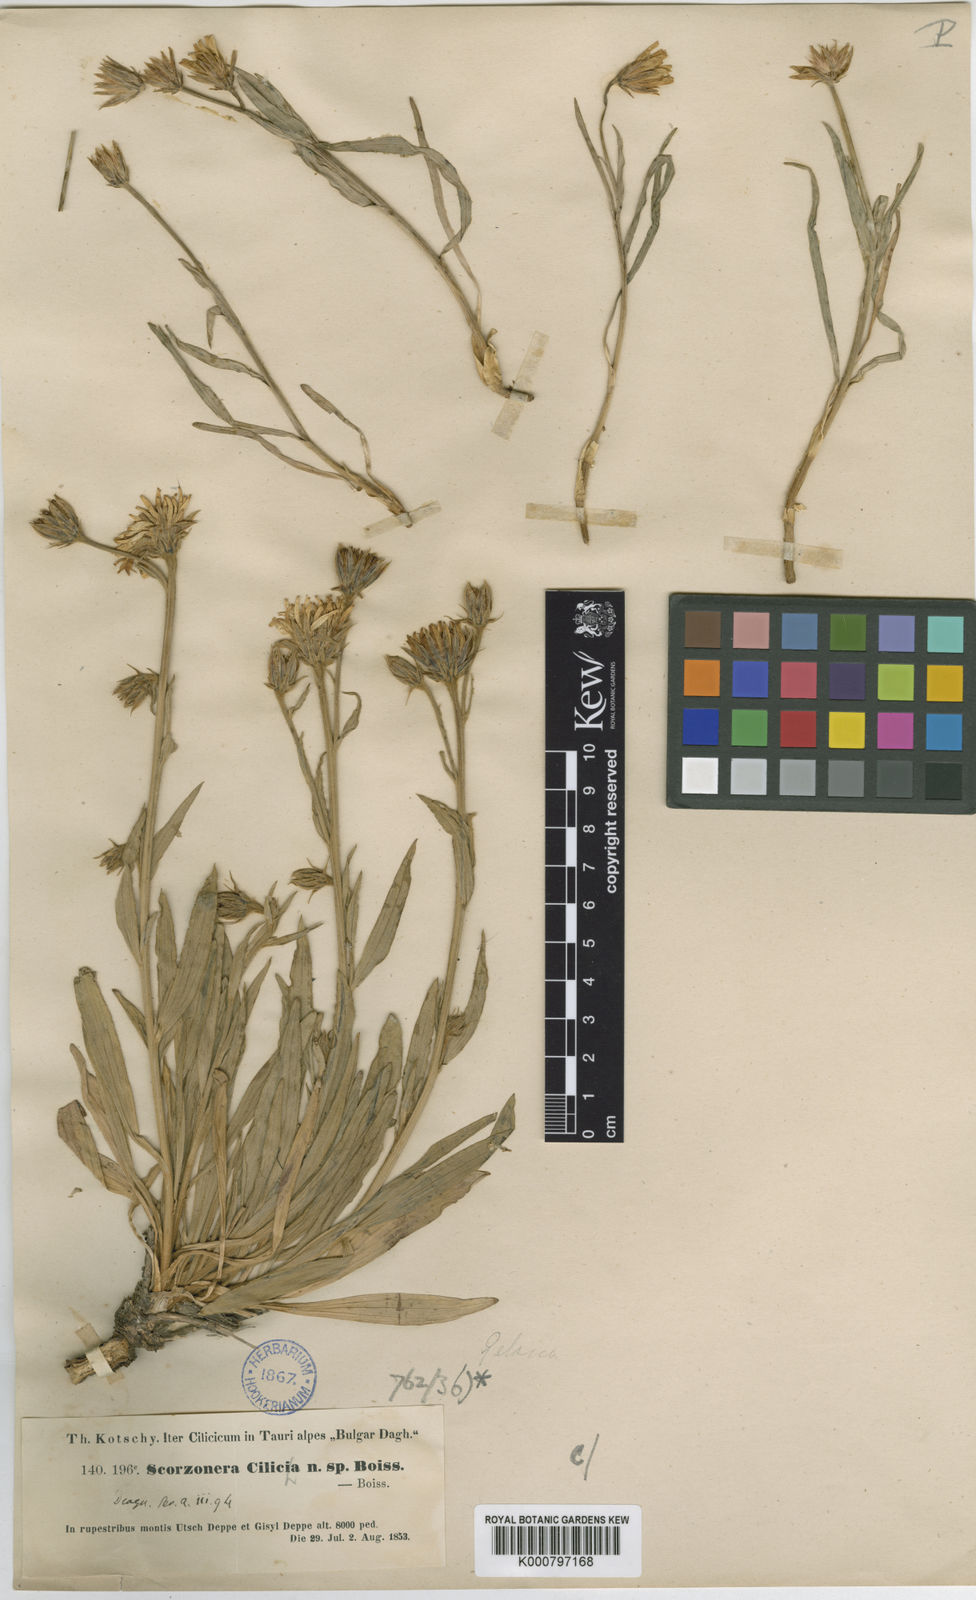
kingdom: Plantae
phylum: Tracheophyta
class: Magnoliopsida
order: Asterales
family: Asteraceae
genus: Cigdemia
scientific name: Cigdemia cinerea
